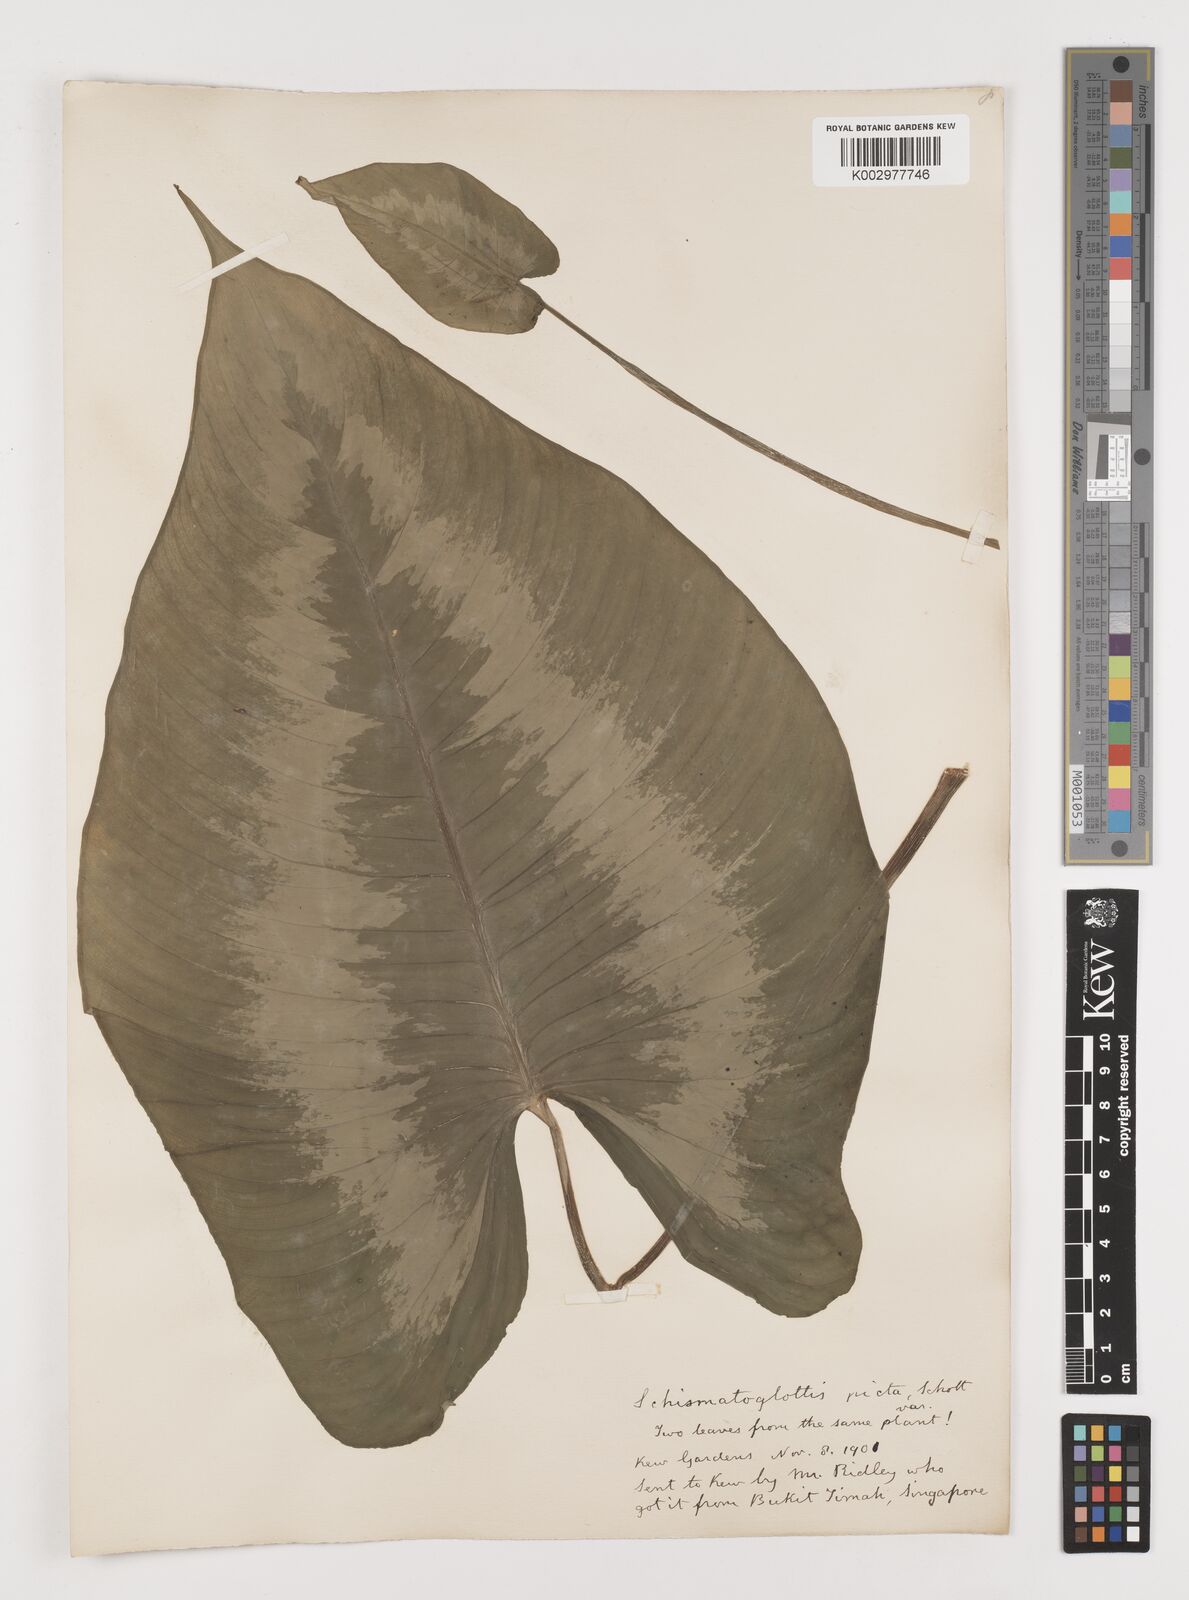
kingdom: Plantae
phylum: Tracheophyta
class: Liliopsida
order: Alismatales
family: Araceae
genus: Schismatoglottis
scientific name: Schismatoglottis calyptrata
